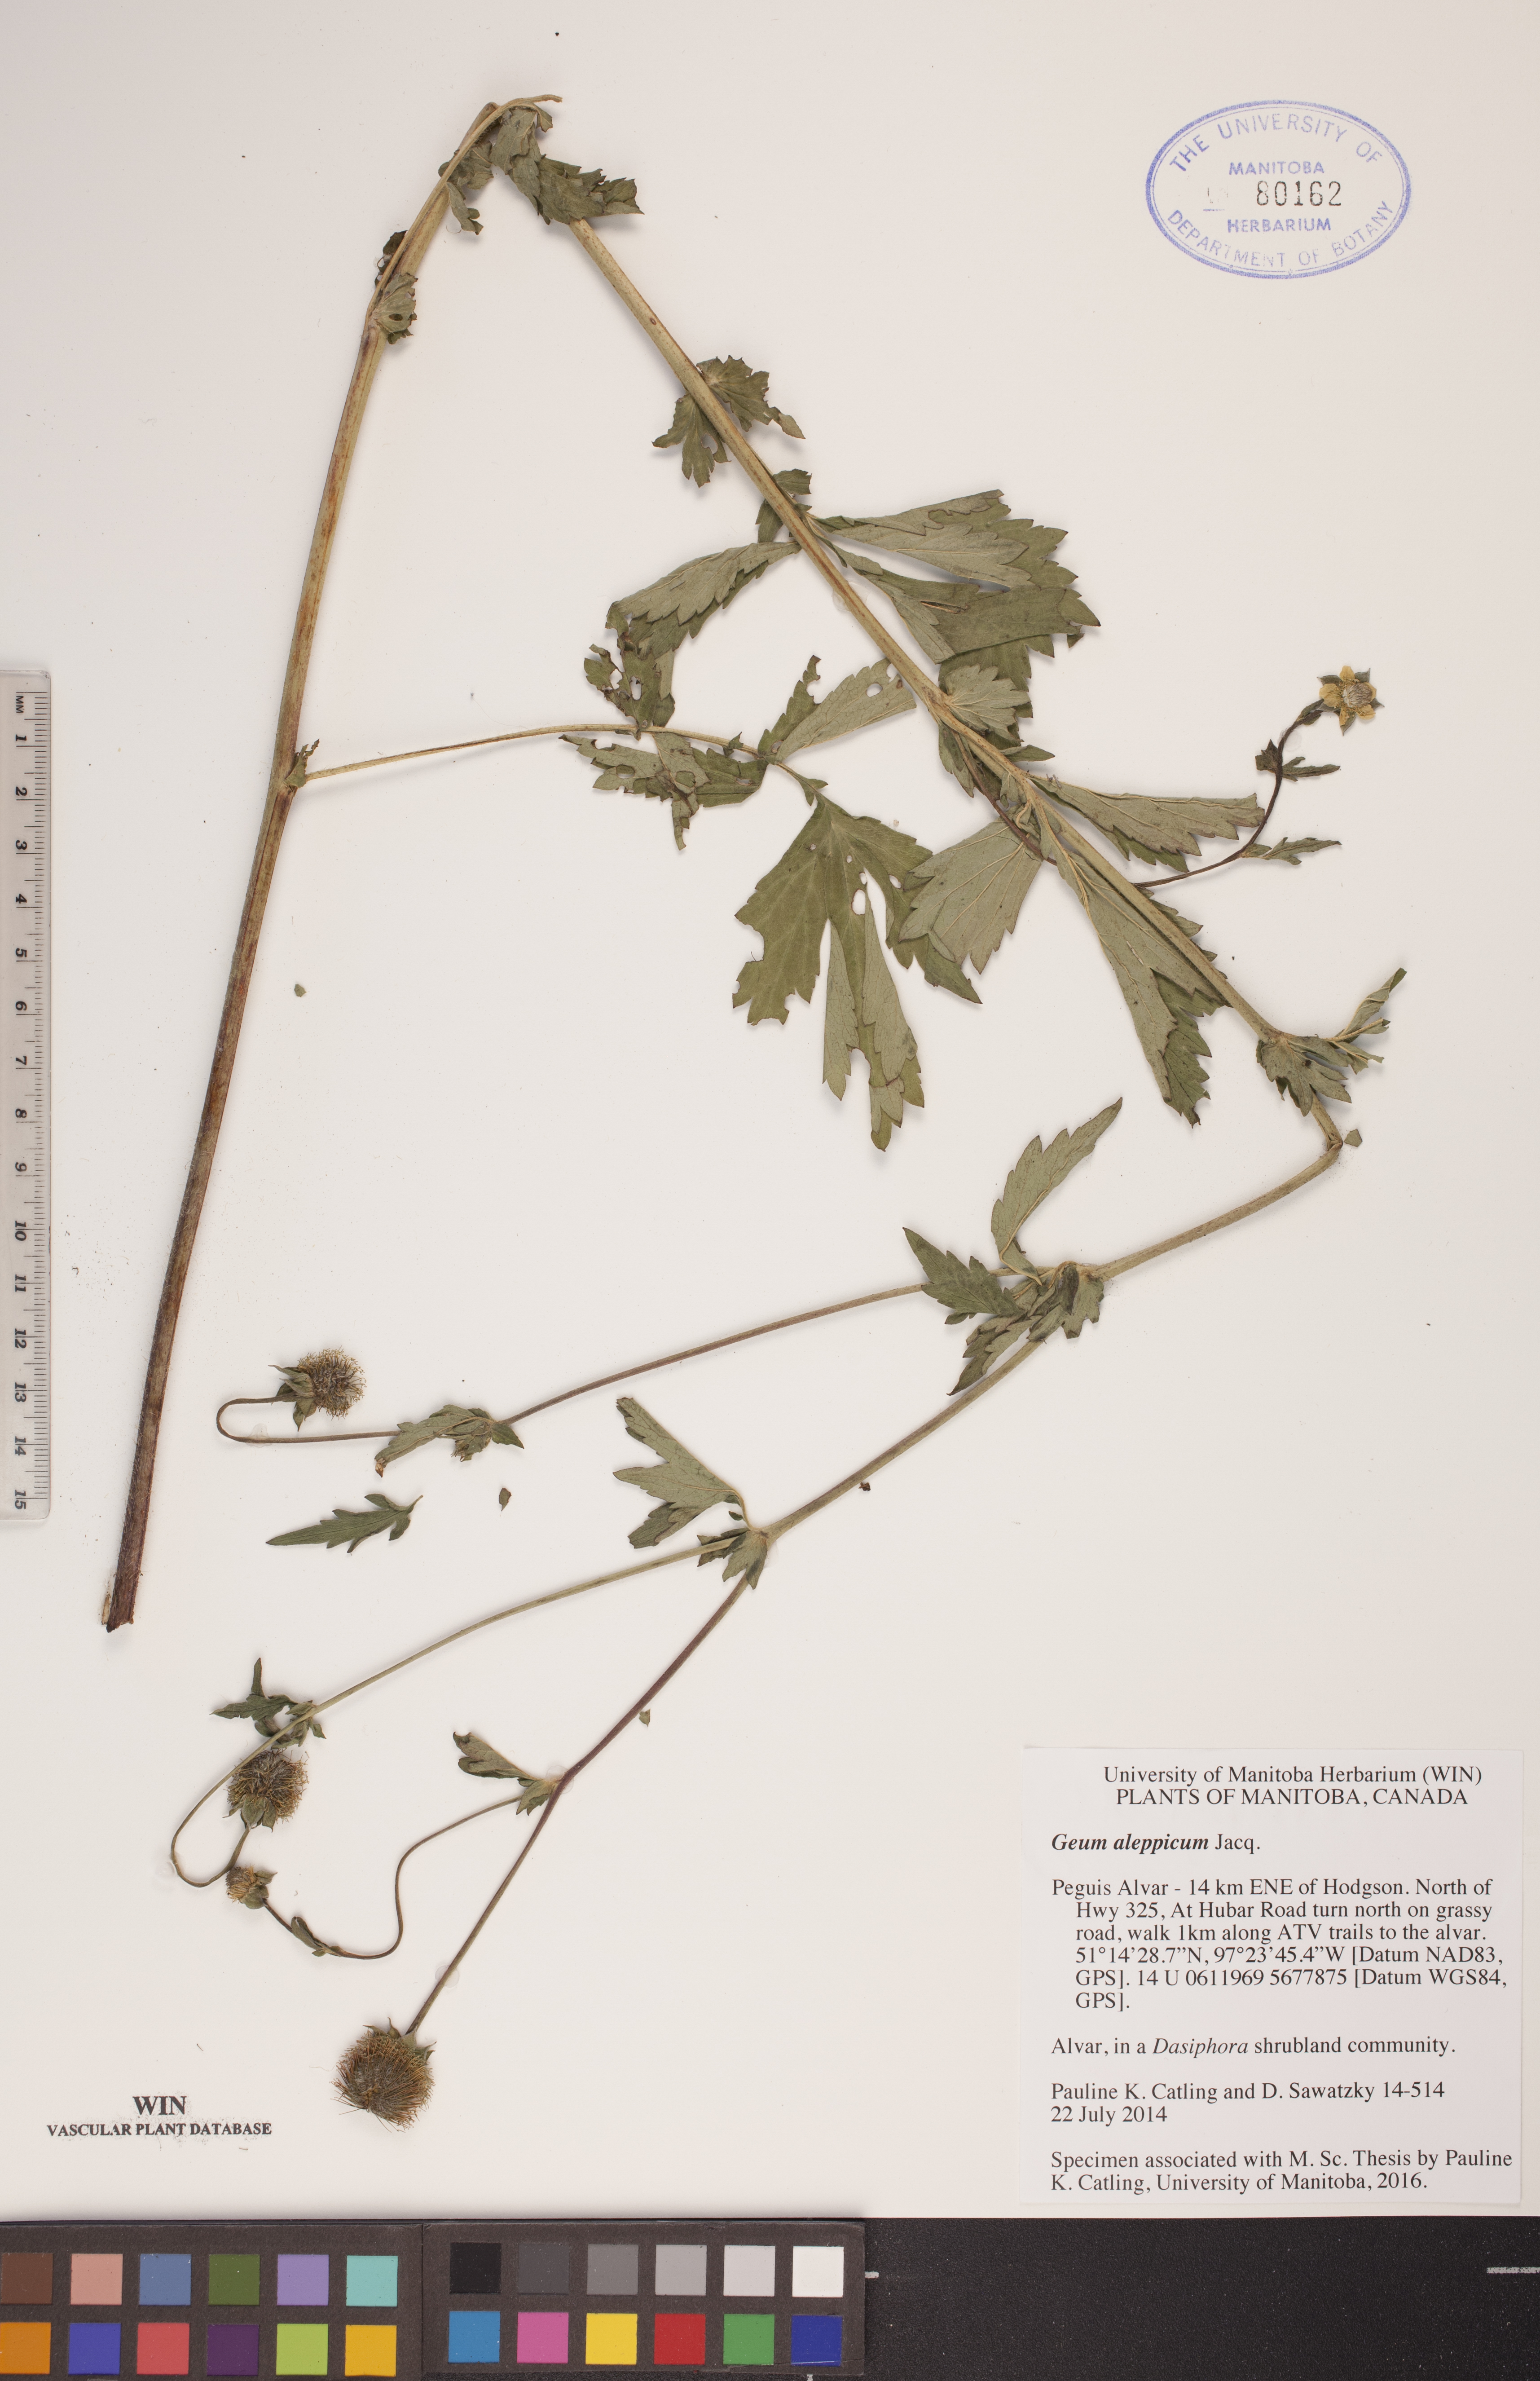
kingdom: Plantae
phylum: Tracheophyta
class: Magnoliopsida
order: Rosales
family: Rosaceae
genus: Geum
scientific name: Geum aleppicum
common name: Yellow avens
